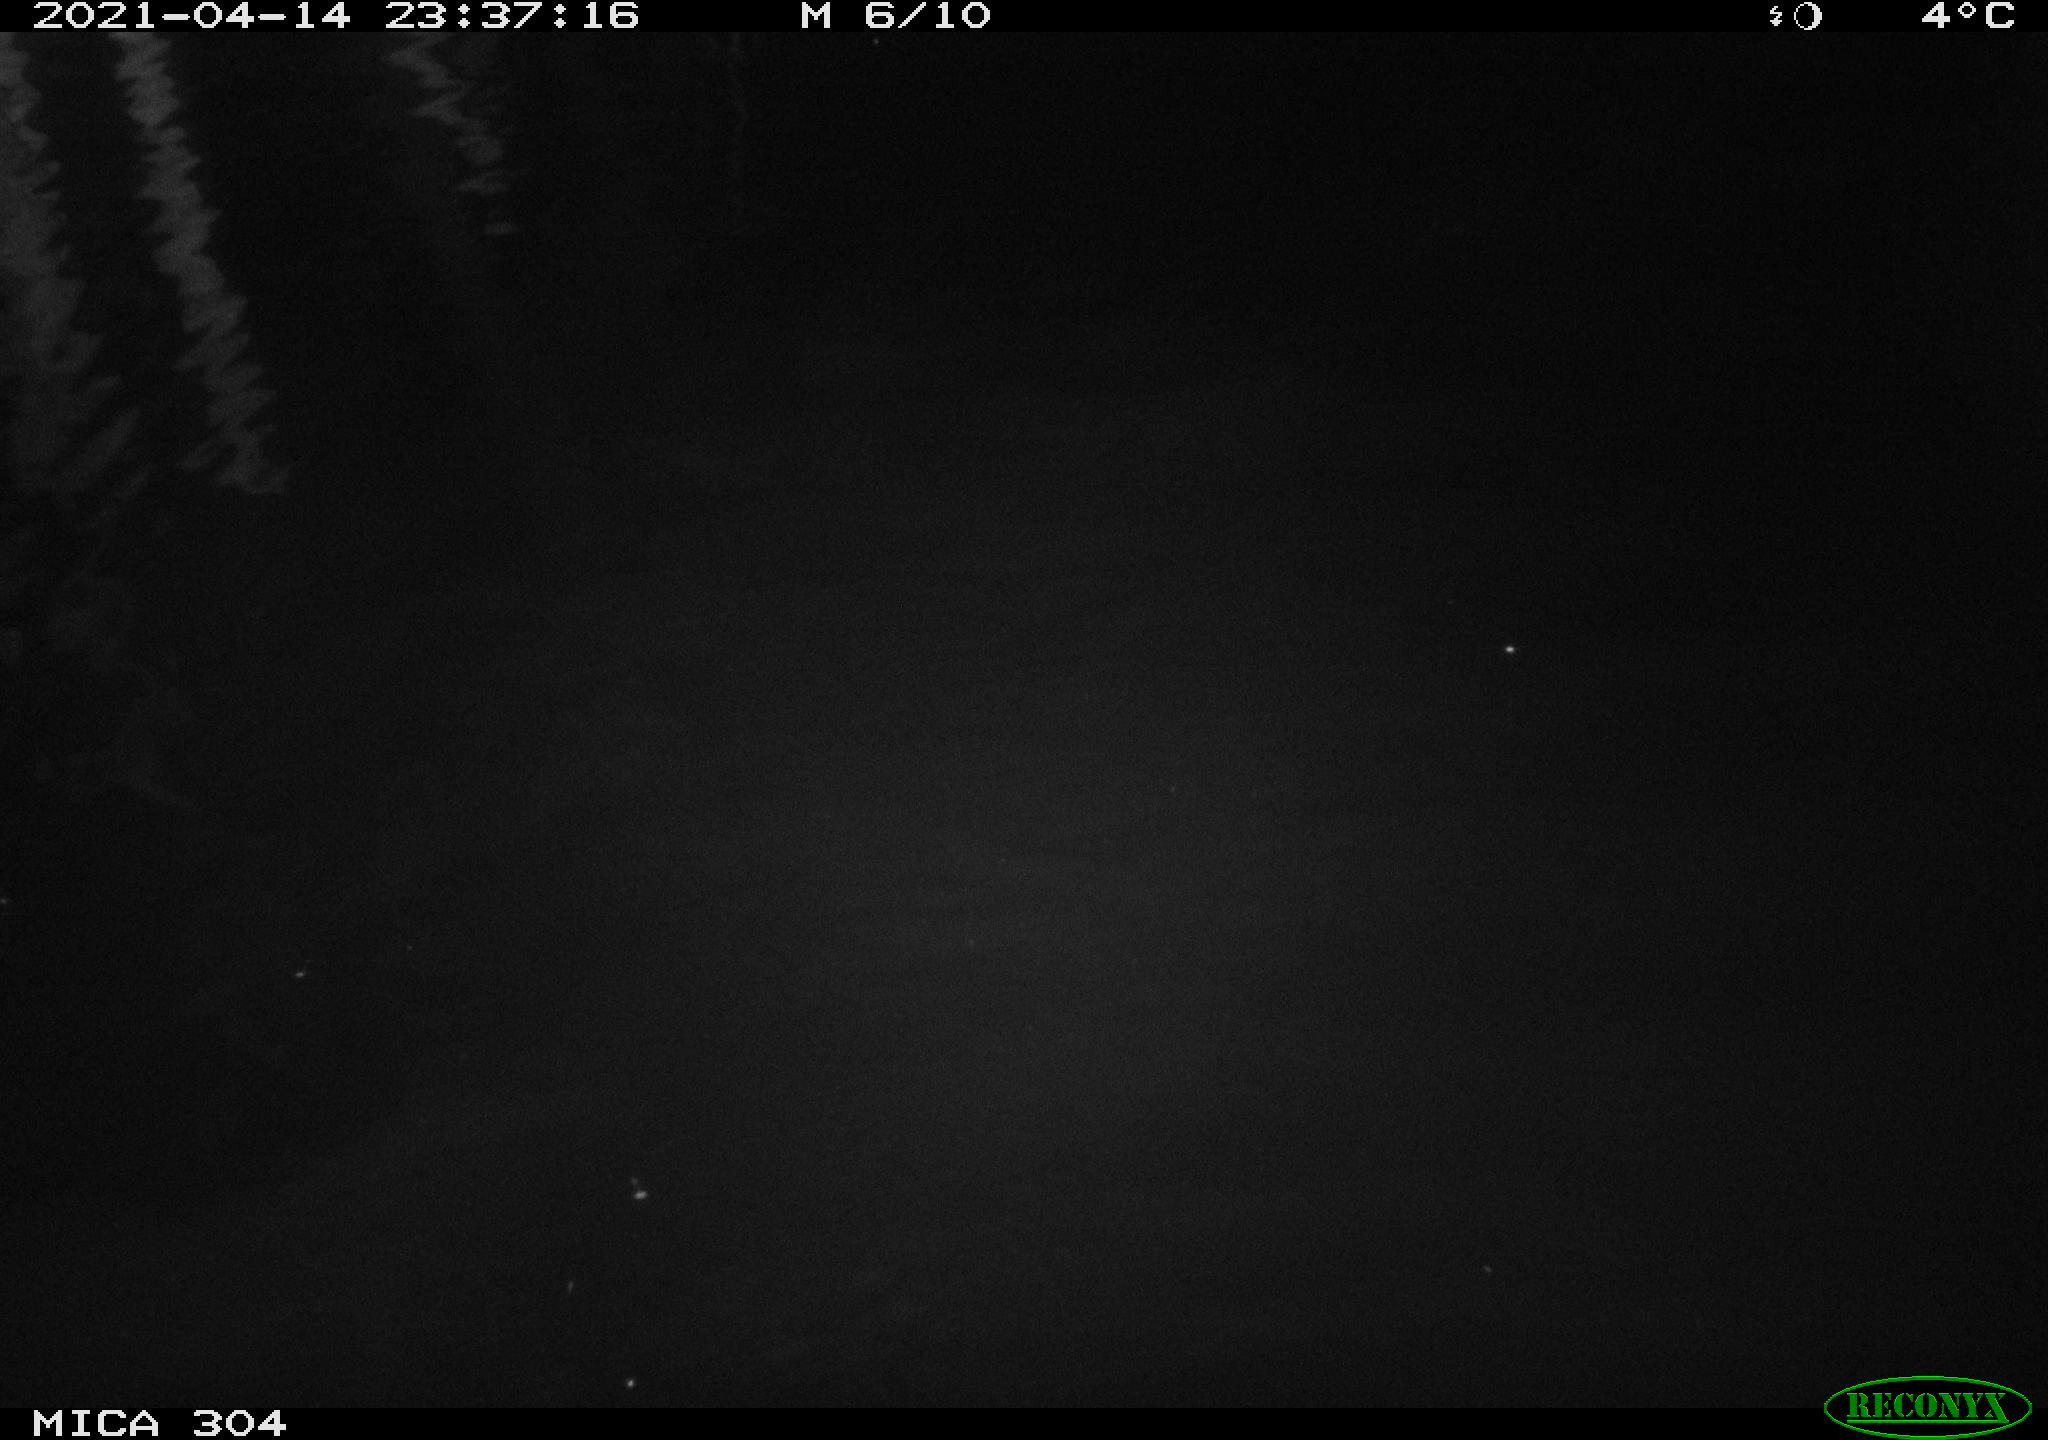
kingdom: Animalia
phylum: Chordata
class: Mammalia
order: Rodentia
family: Cricetidae
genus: Ondatra
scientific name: Ondatra zibethicus
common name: Muskrat
